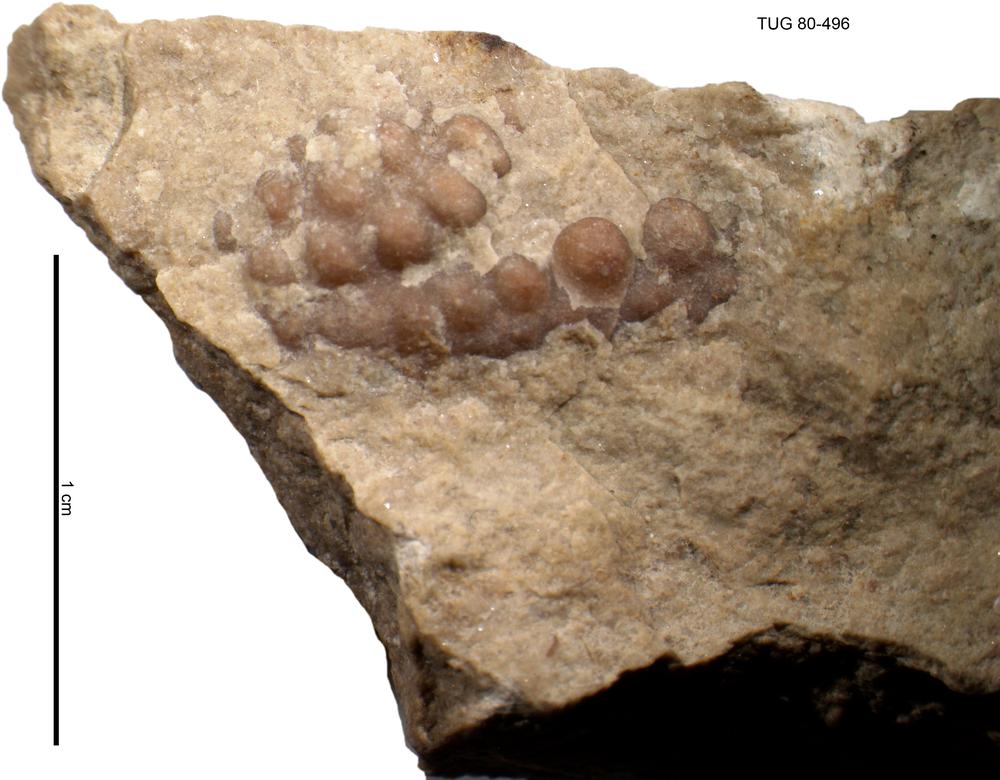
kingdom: Animalia
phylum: Arthropoda
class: Trilobita
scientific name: Trilobita
